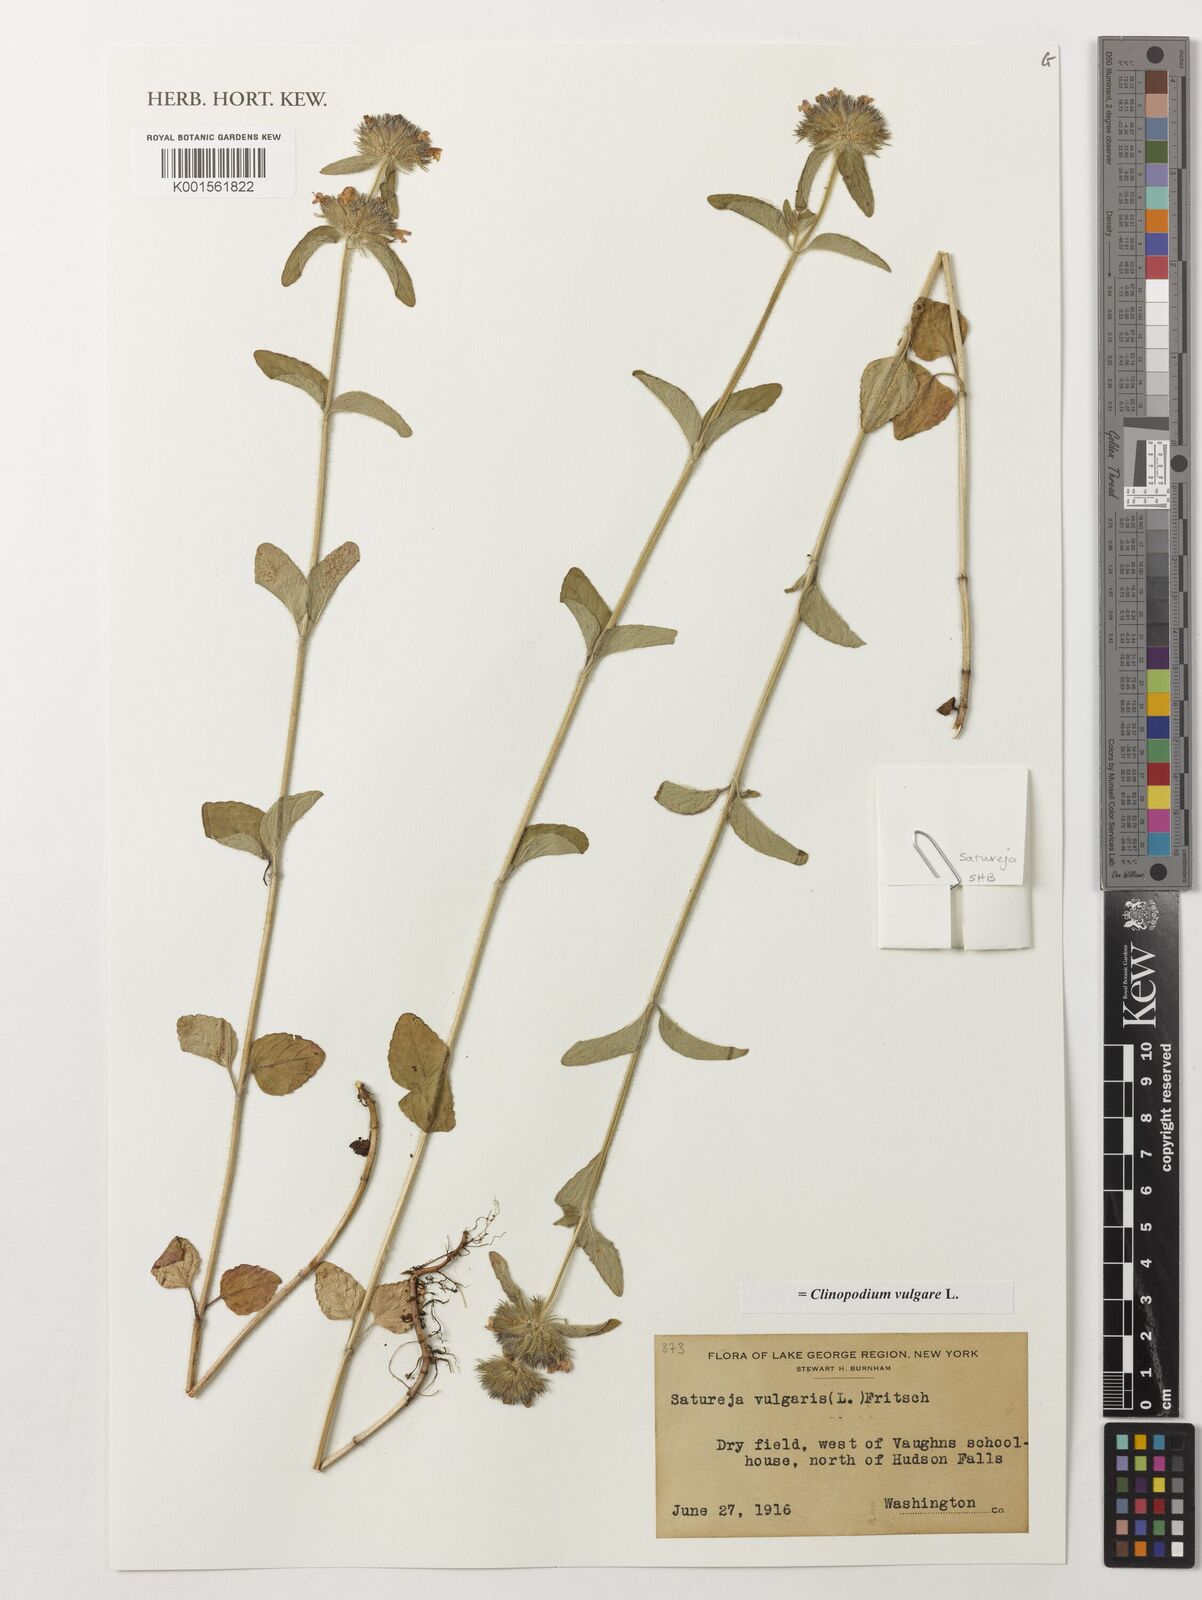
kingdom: Plantae
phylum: Tracheophyta
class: Magnoliopsida
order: Lamiales
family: Lamiaceae
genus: Clinopodium
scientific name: Clinopodium vulgare
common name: Wild basil
